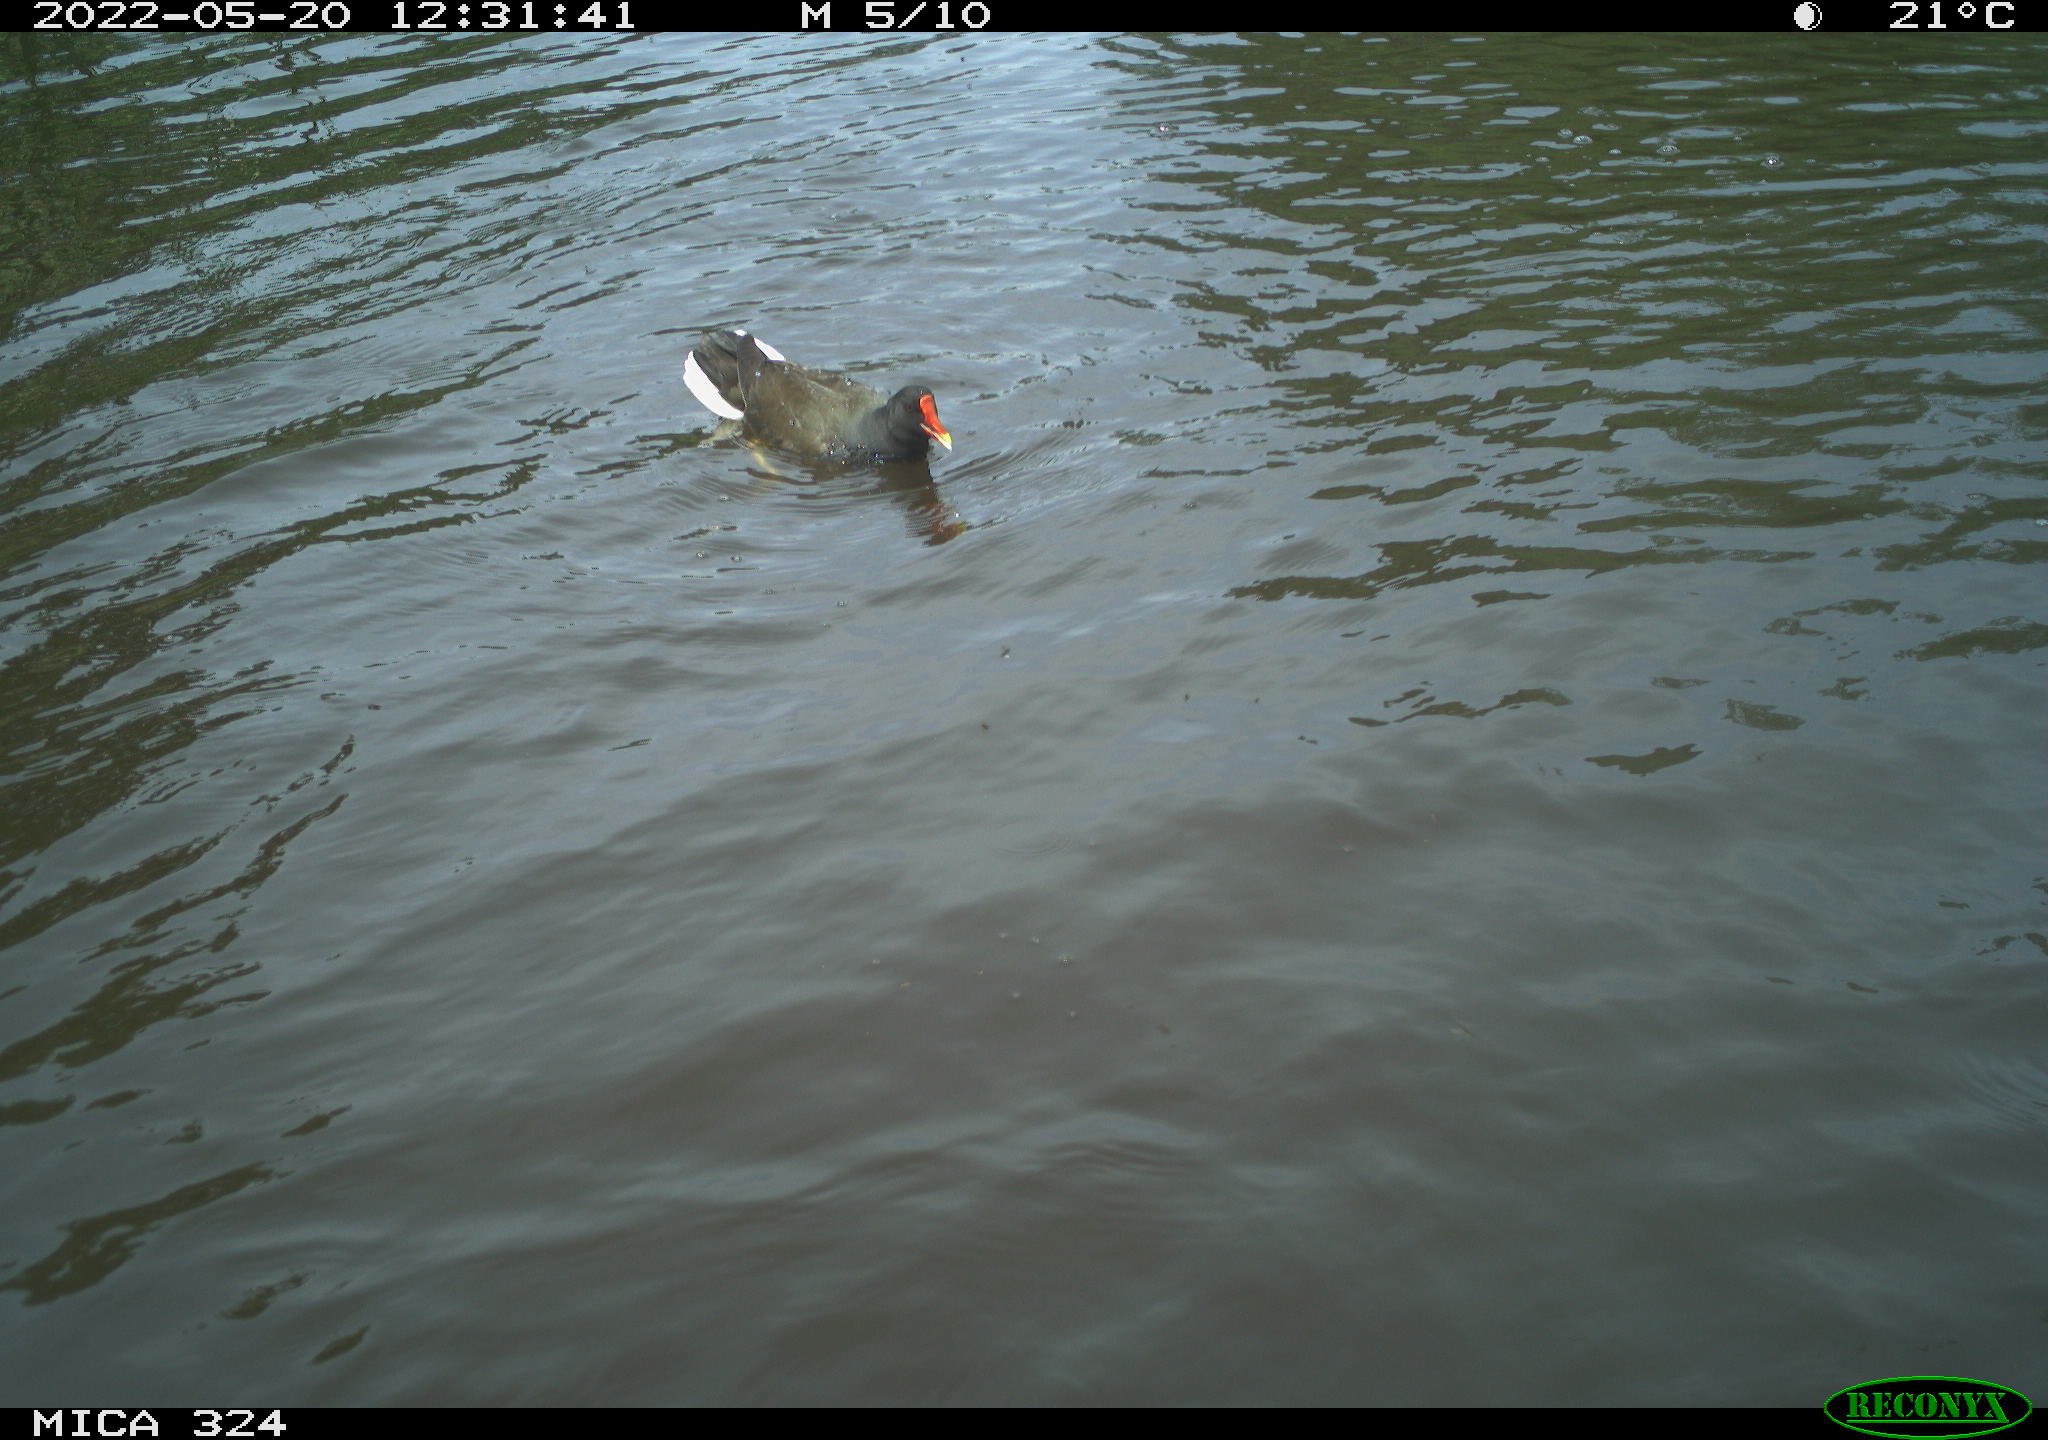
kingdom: Animalia
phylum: Chordata
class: Aves
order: Gruiformes
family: Rallidae
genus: Gallinula
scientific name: Gallinula chloropus
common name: Common moorhen
